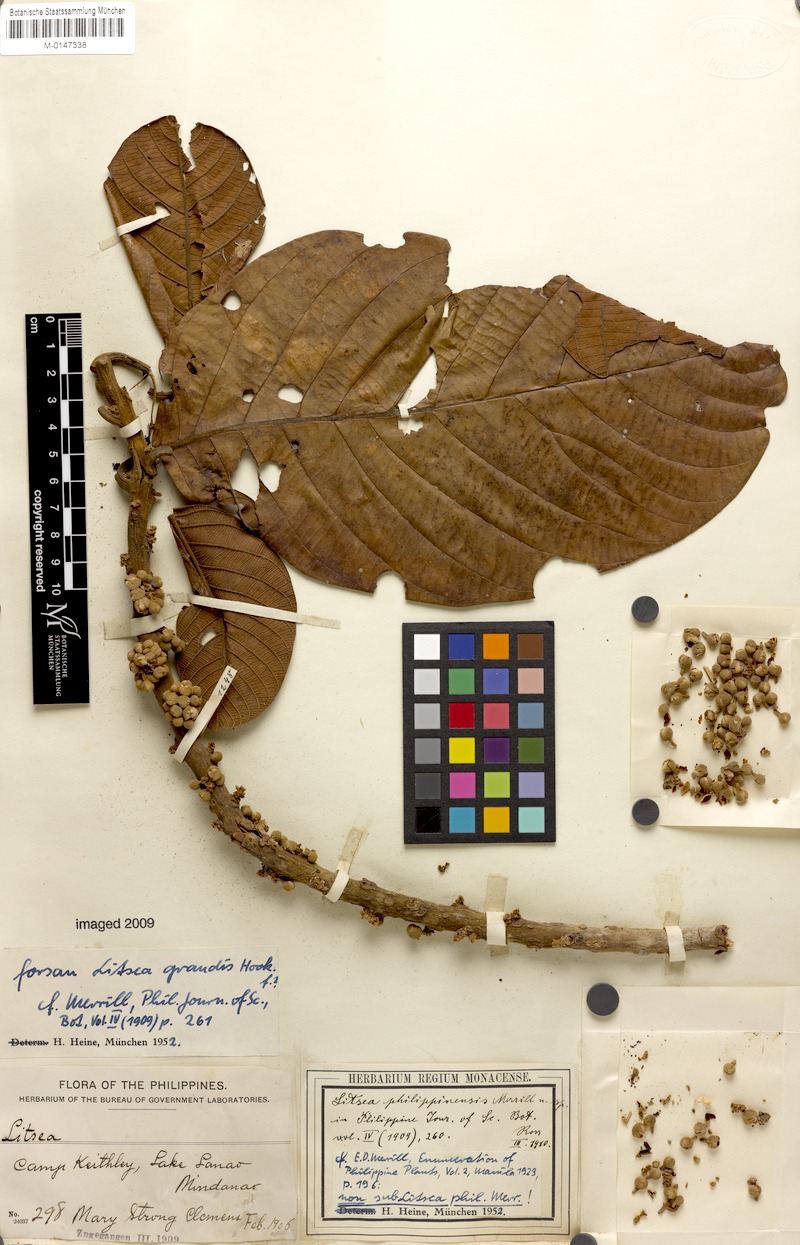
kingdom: Plantae
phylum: Tracheophyta
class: Magnoliopsida
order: Laurales
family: Lauraceae
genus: Litsea
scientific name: Litsea philippinensis
